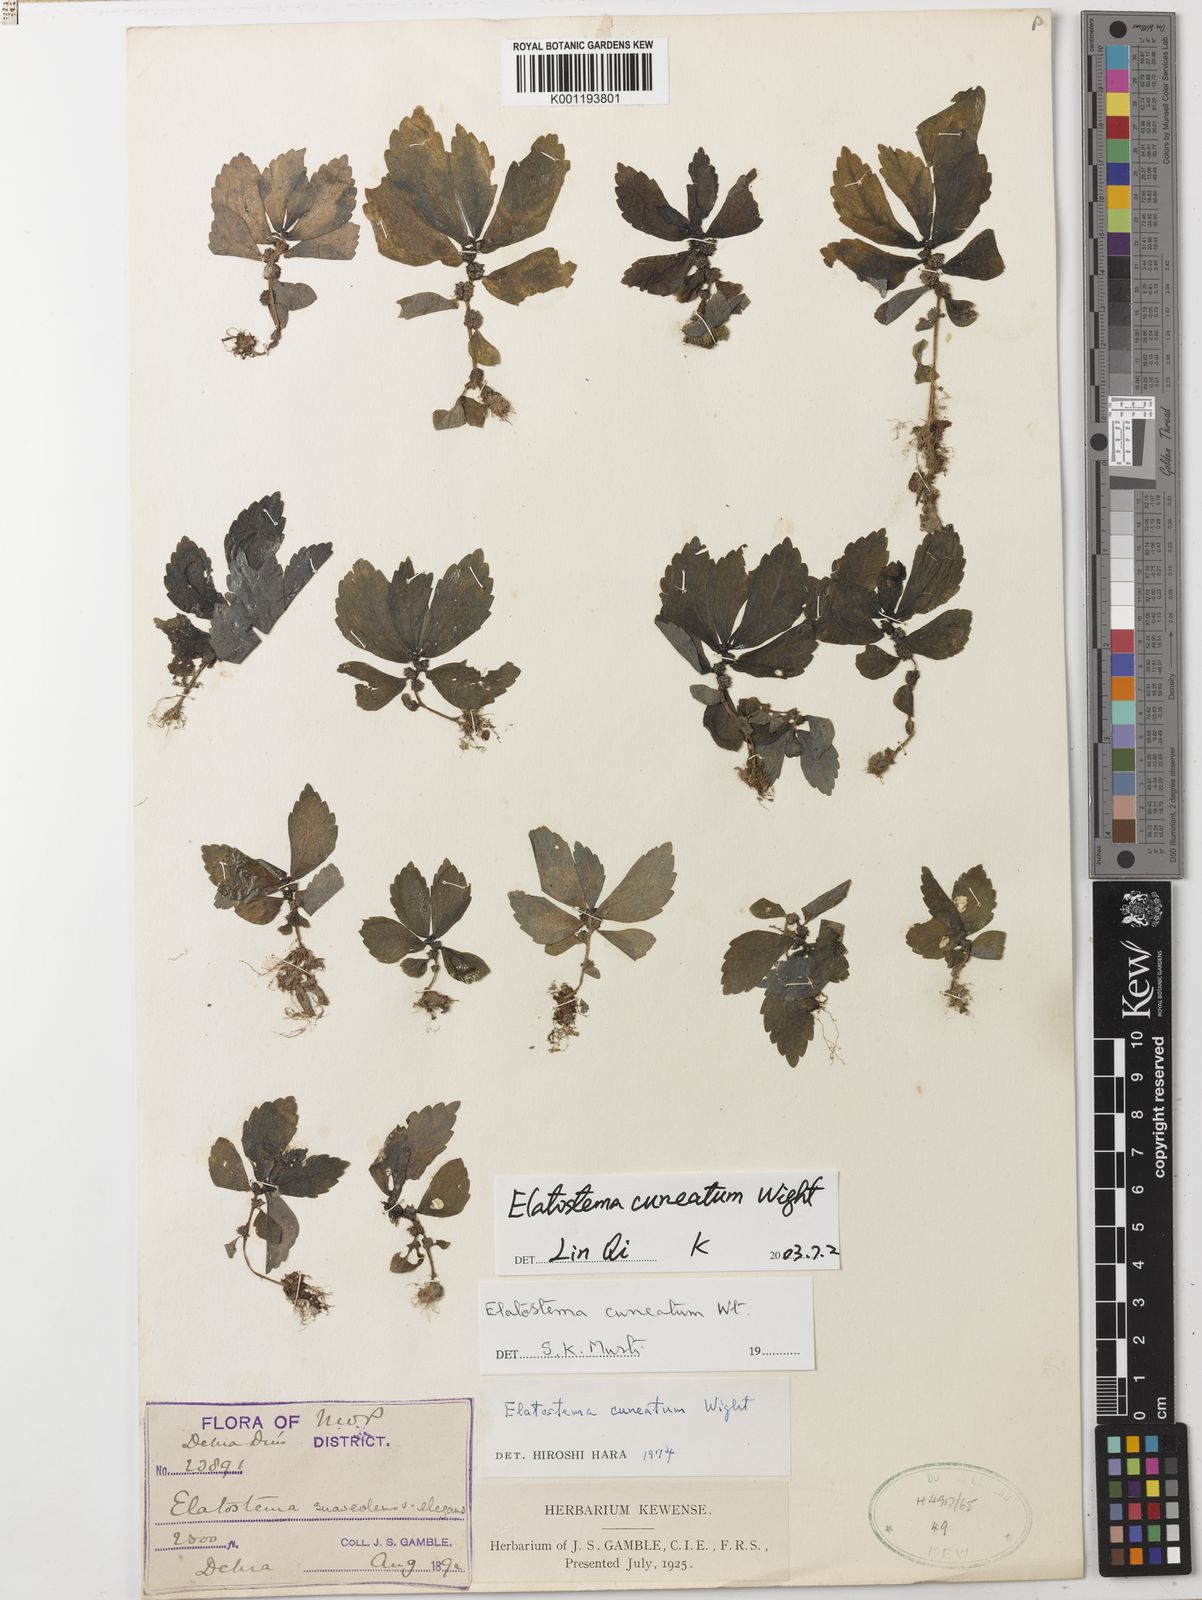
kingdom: Plantae
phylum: Tracheophyta
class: Magnoliopsida
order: Rosales
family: Urticaceae
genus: Elatostema
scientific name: Elatostema cuneatum
